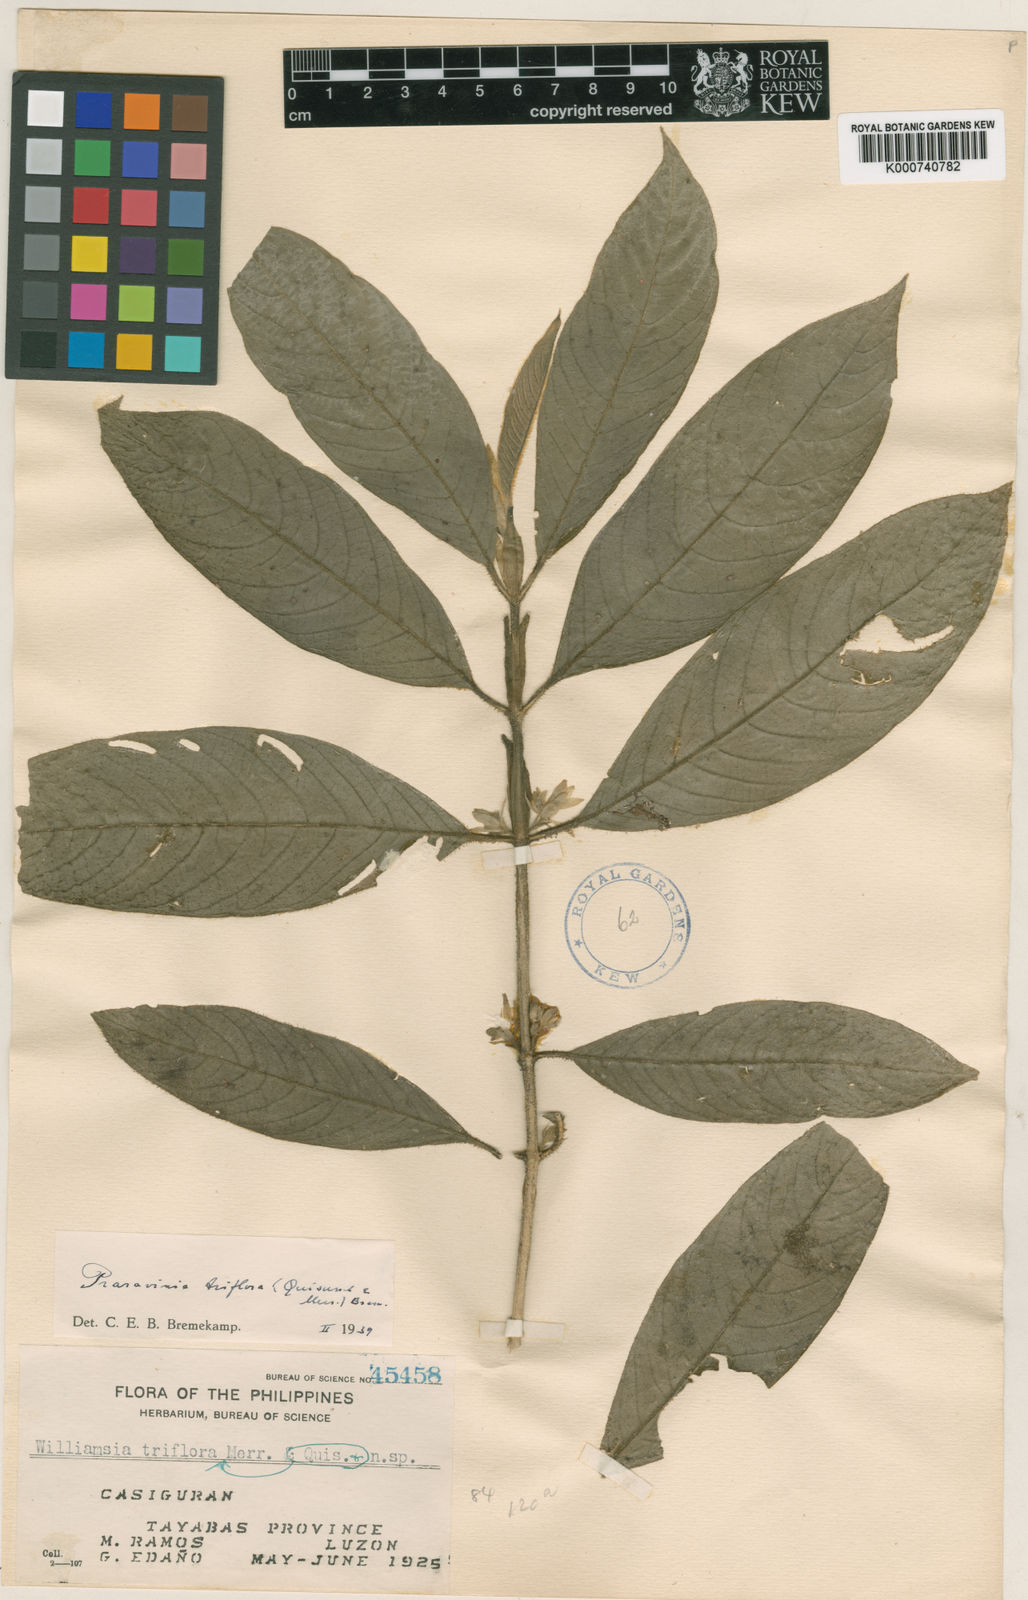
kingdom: Plantae
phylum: Tracheophyta
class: Magnoliopsida
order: Gentianales
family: Rubiaceae
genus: Praravinia
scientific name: Praravinia triflora
